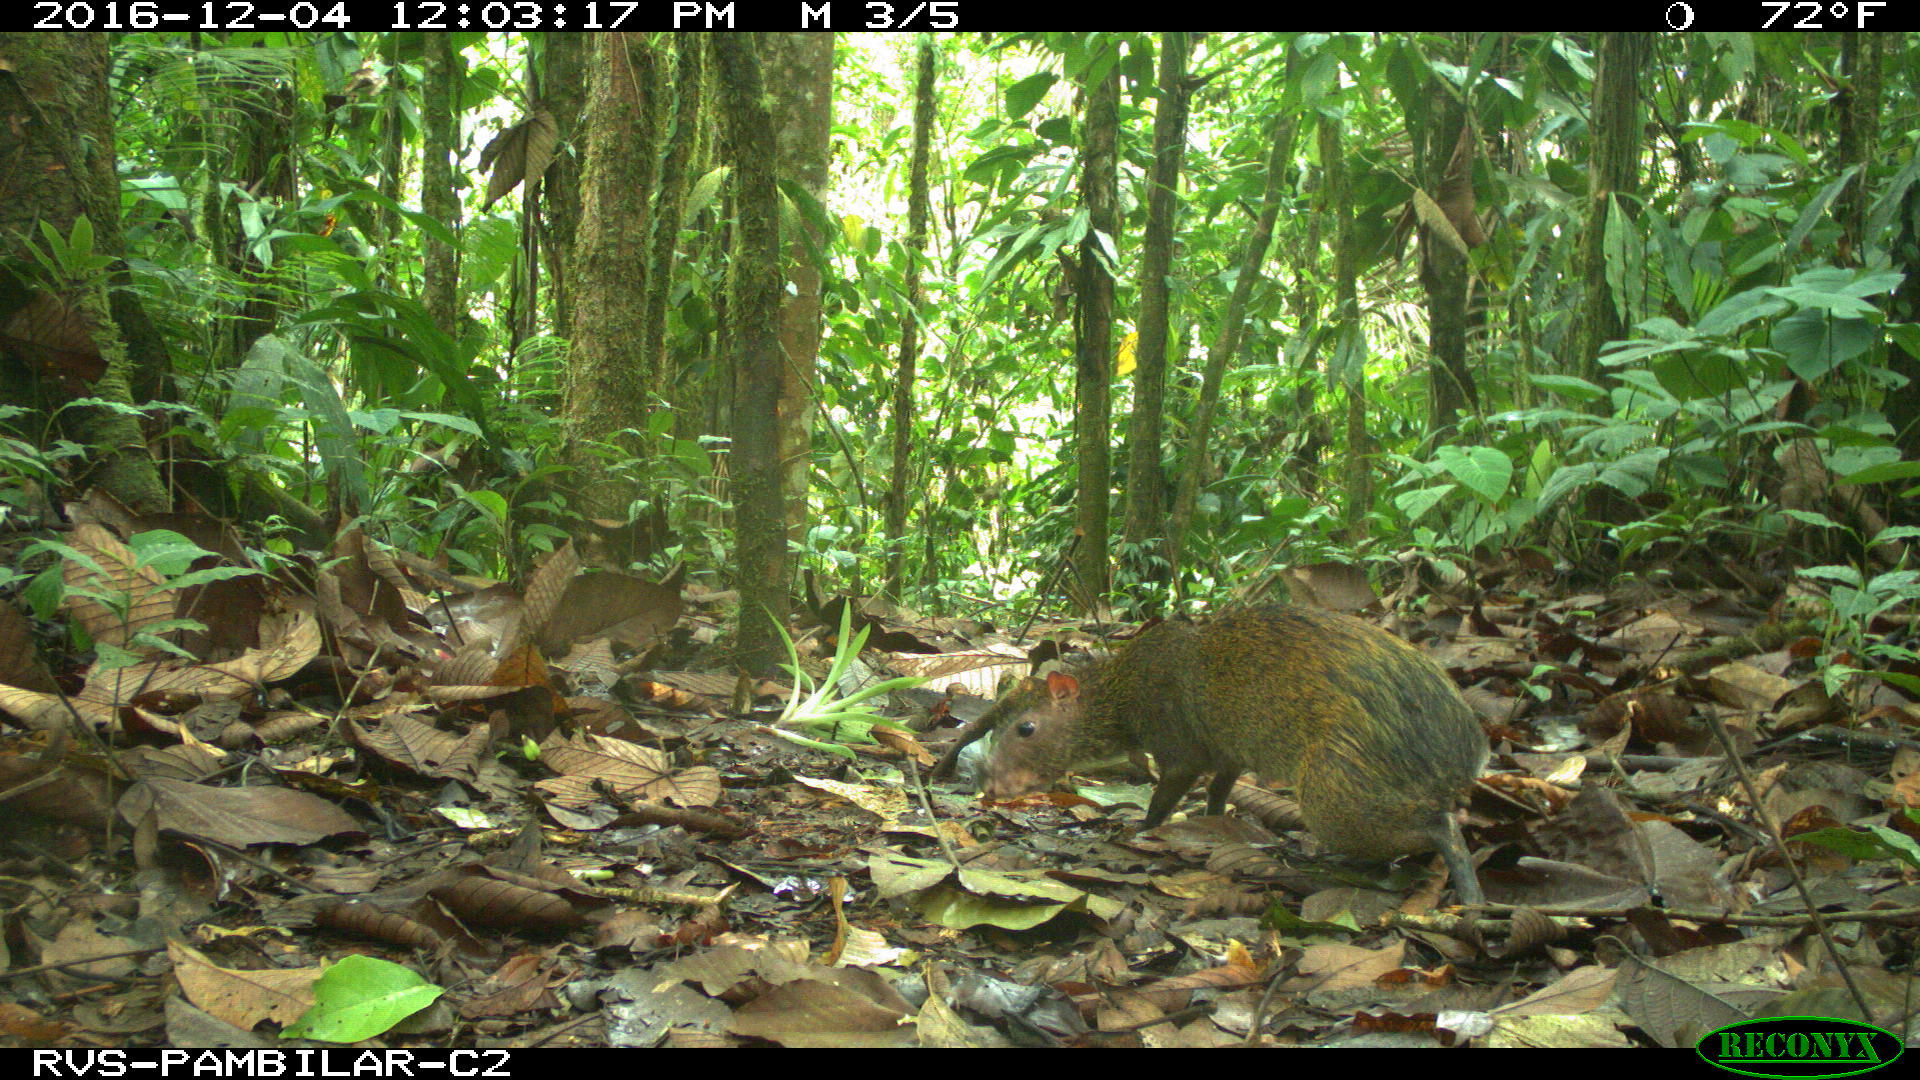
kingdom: Animalia
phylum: Chordata
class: Mammalia
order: Rodentia
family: Dasyproctidae
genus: Dasyprocta
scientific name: Dasyprocta punctata
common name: Central american agouti
